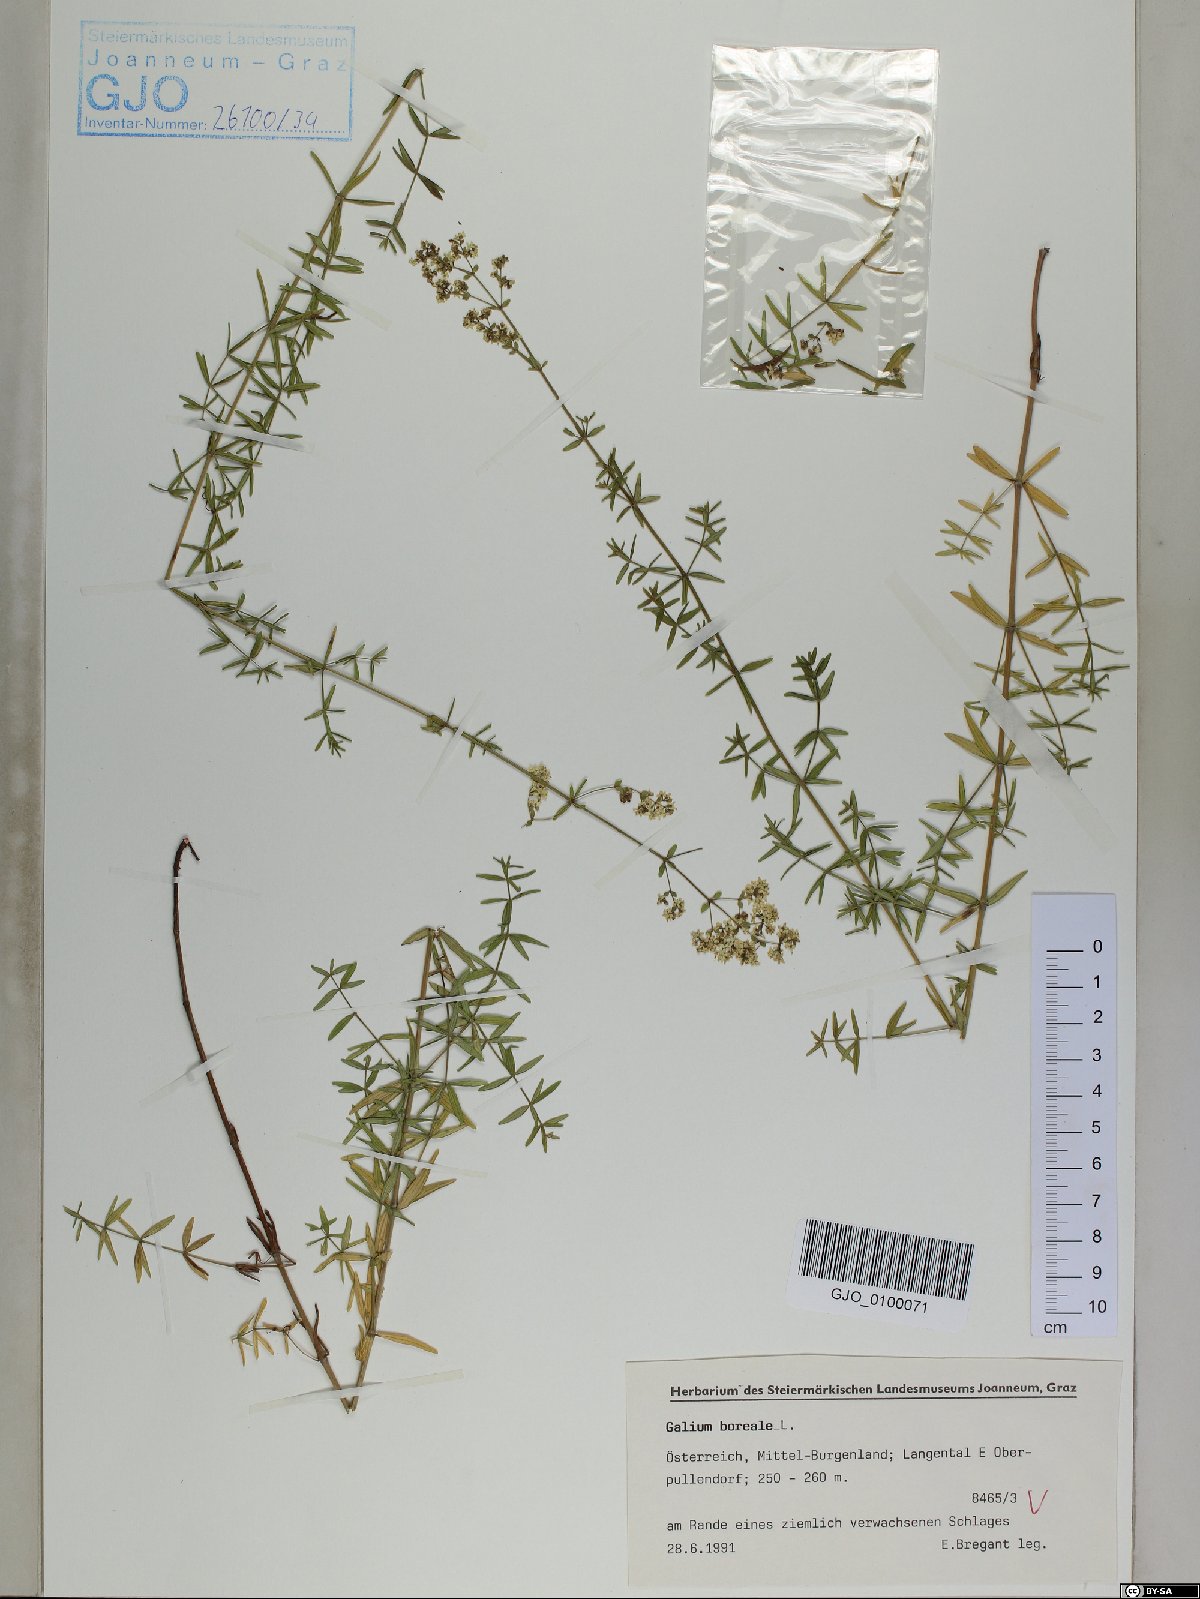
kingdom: Plantae
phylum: Tracheophyta
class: Magnoliopsida
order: Gentianales
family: Rubiaceae
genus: Galium
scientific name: Galium boreale
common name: Northern bedstraw
